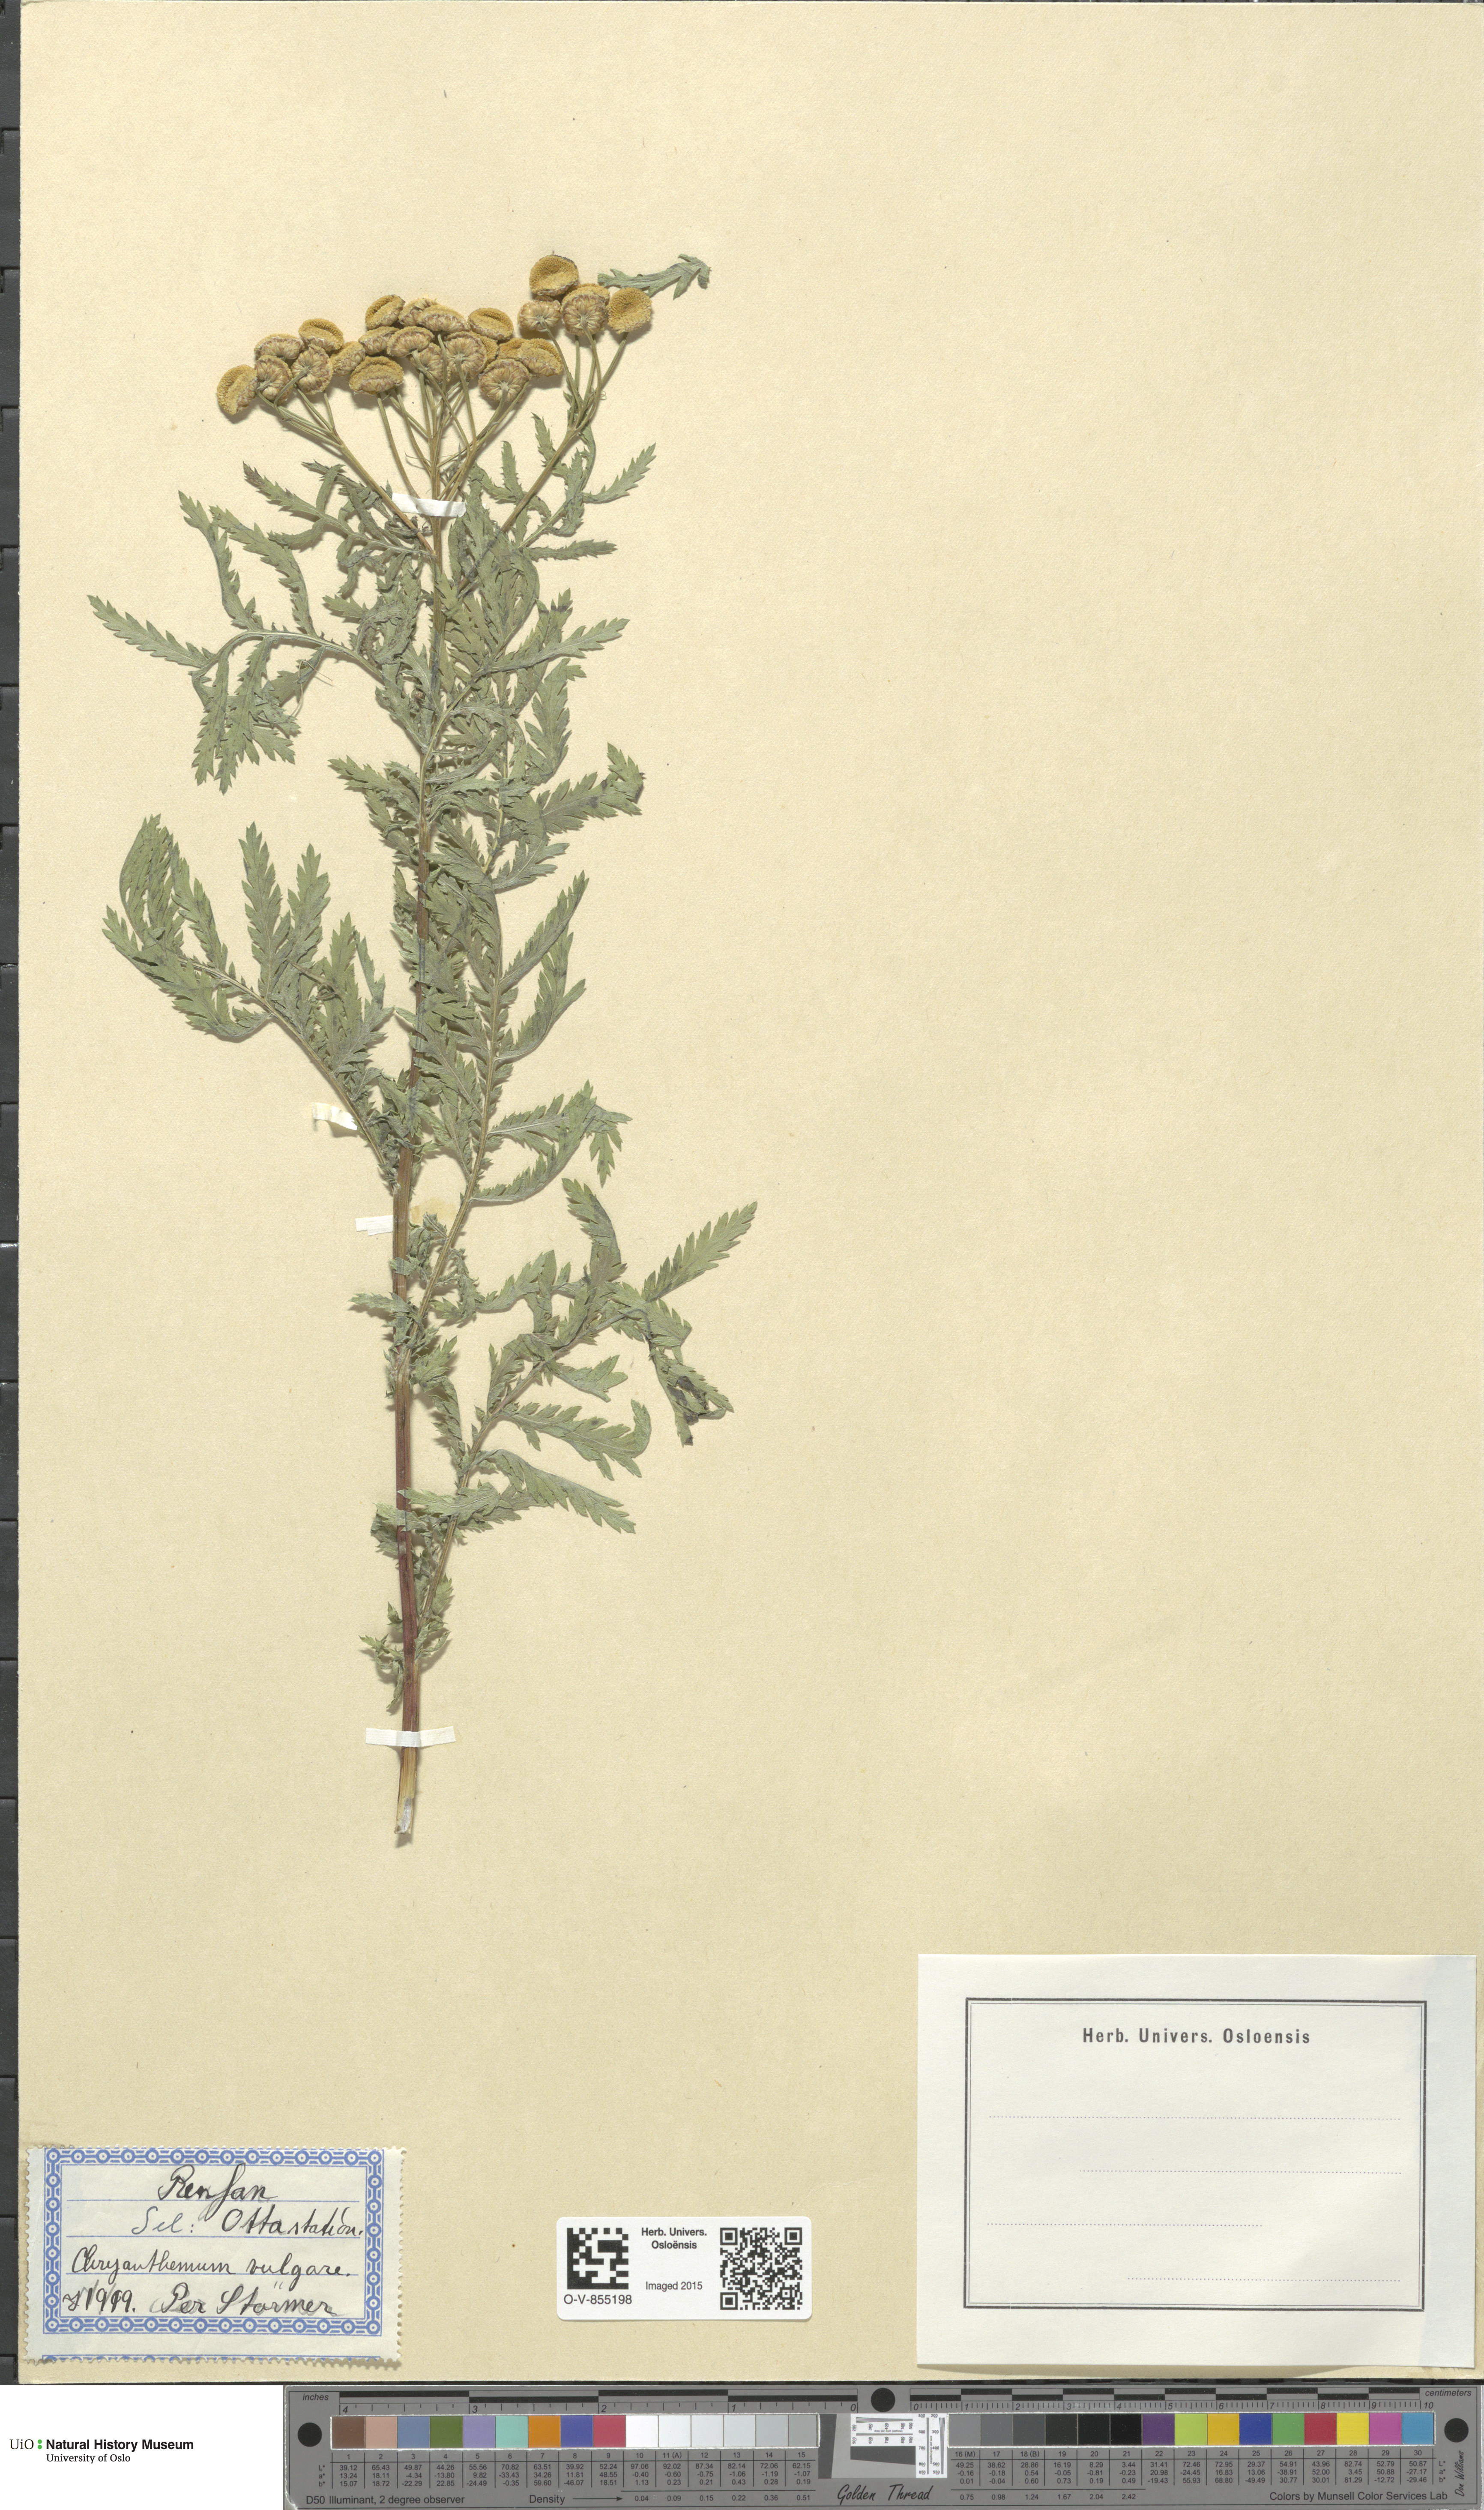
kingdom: Plantae
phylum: Tracheophyta
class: Magnoliopsida
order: Asterales
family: Asteraceae
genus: Tanacetum
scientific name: Tanacetum vulgare
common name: Common tansy
